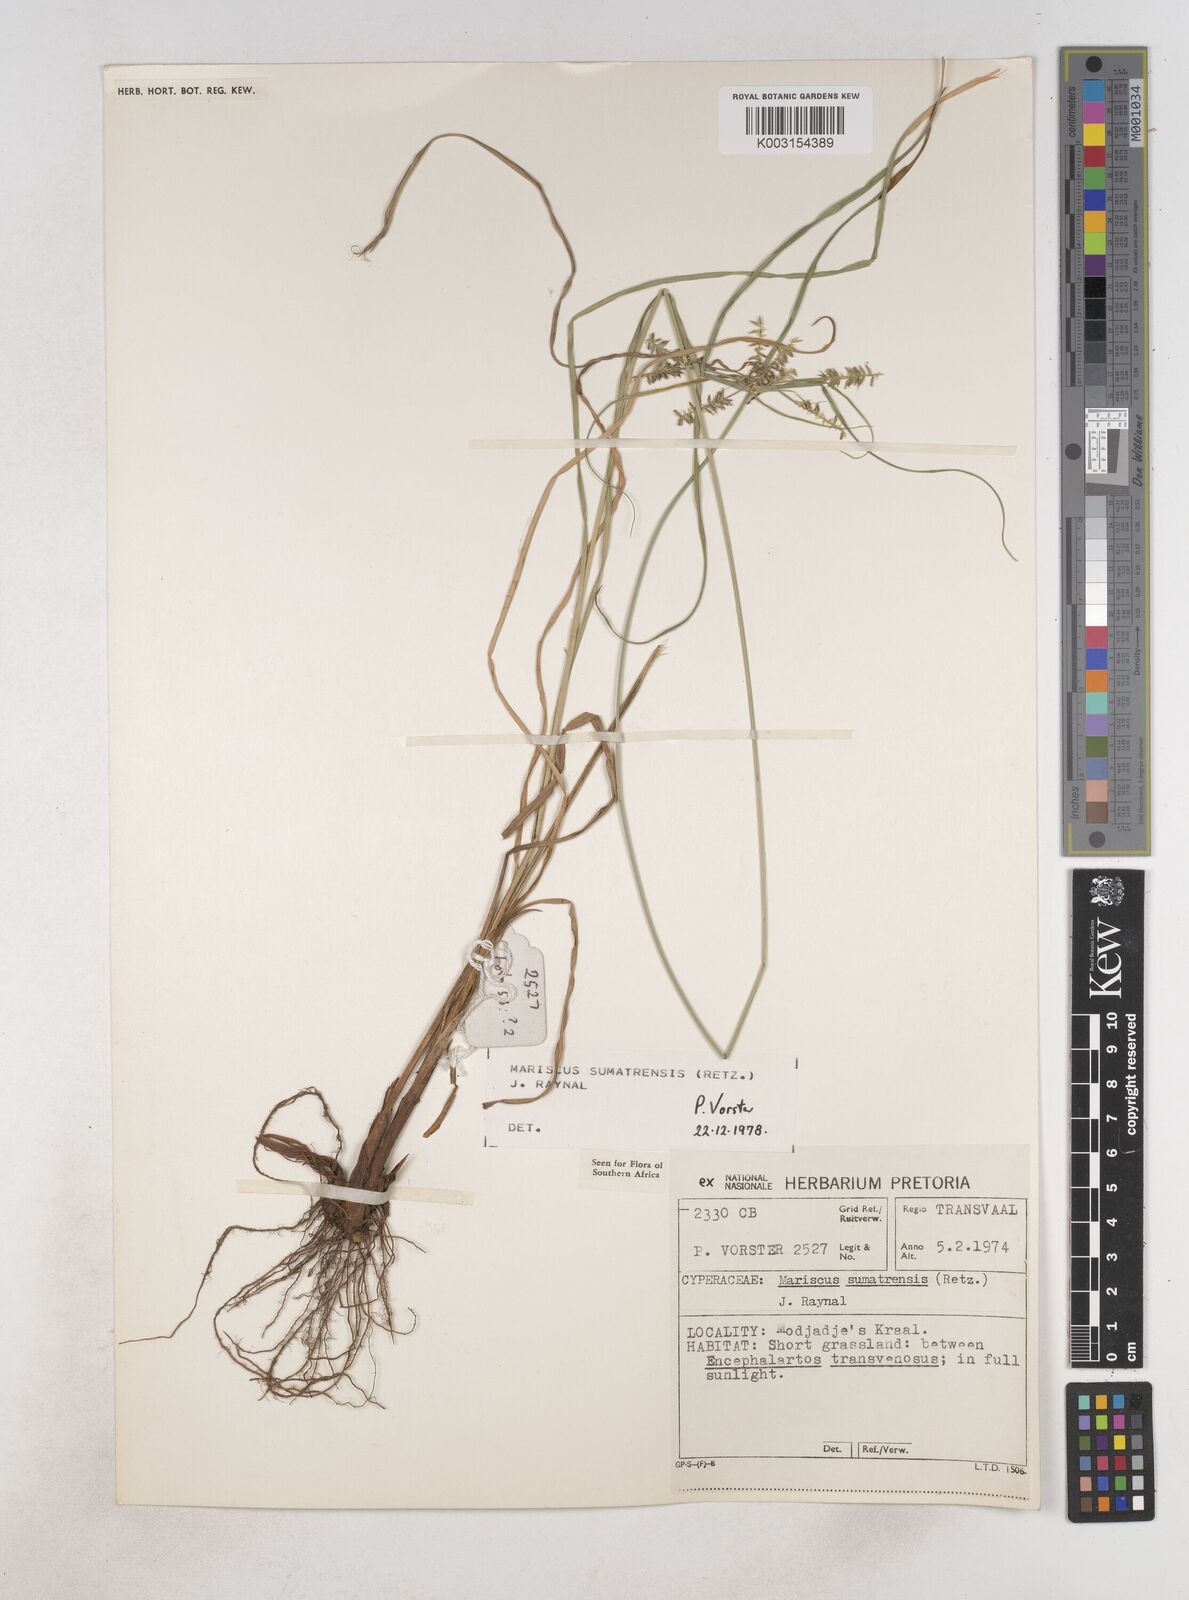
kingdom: Plantae
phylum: Tracheophyta
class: Liliopsida
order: Poales
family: Cyperaceae
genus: Cyperus
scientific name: Cyperus cyperoides
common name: Pacific island flat sedge
